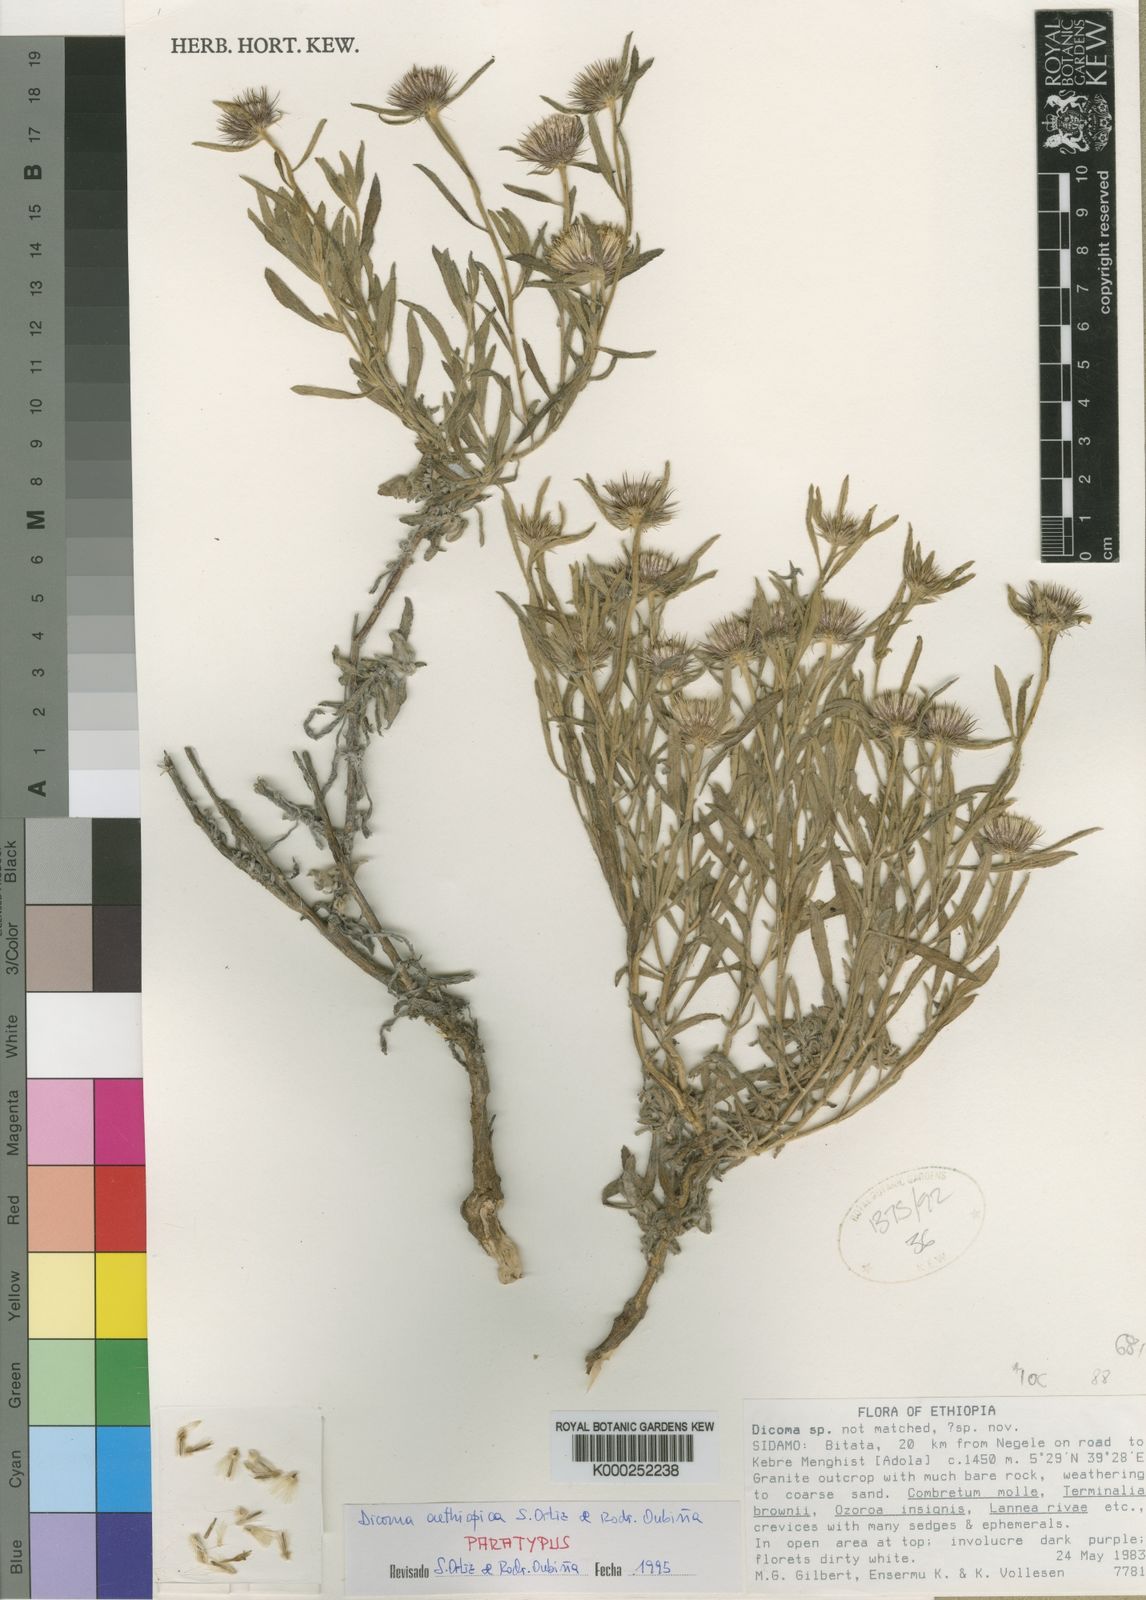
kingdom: Plantae
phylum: Tracheophyta
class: Magnoliopsida
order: Asterales
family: Asteraceae
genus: Dicoma
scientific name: Dicoma
